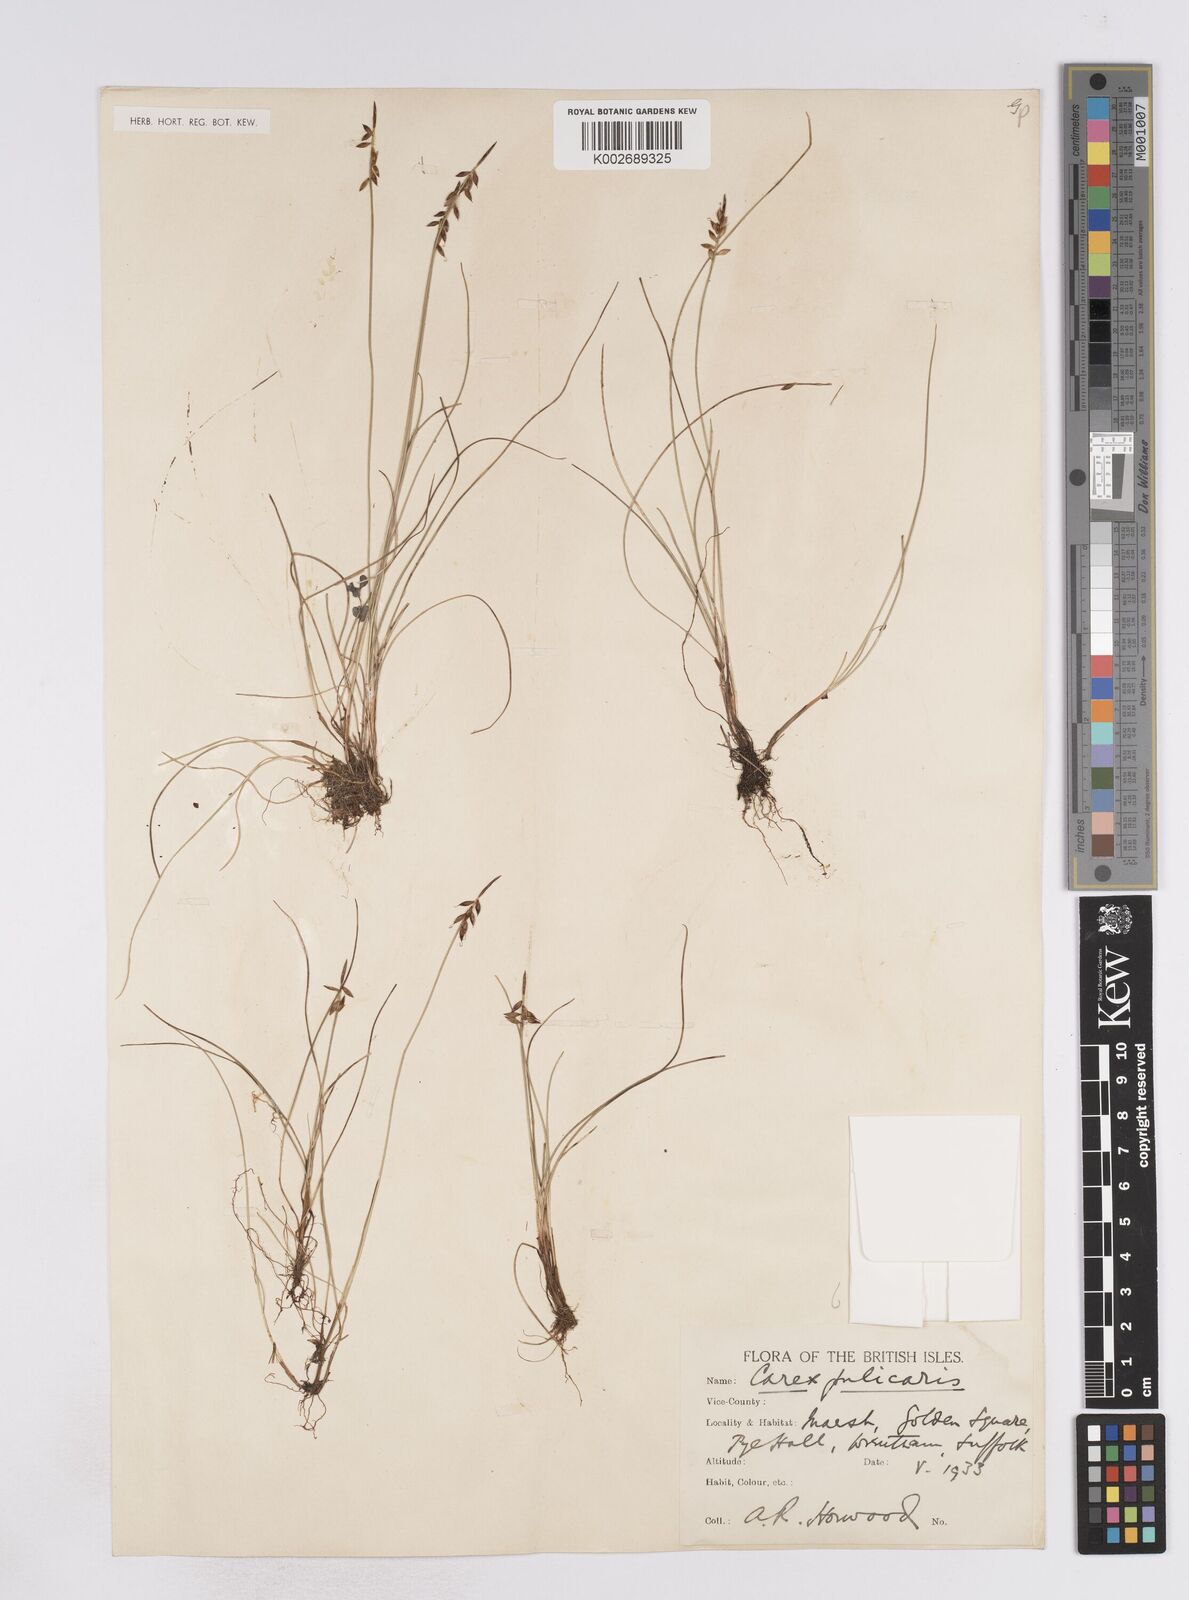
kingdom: Plantae
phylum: Tracheophyta
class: Liliopsida
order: Poales
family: Cyperaceae
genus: Carex
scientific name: Carex flacca
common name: Glaucous sedge
